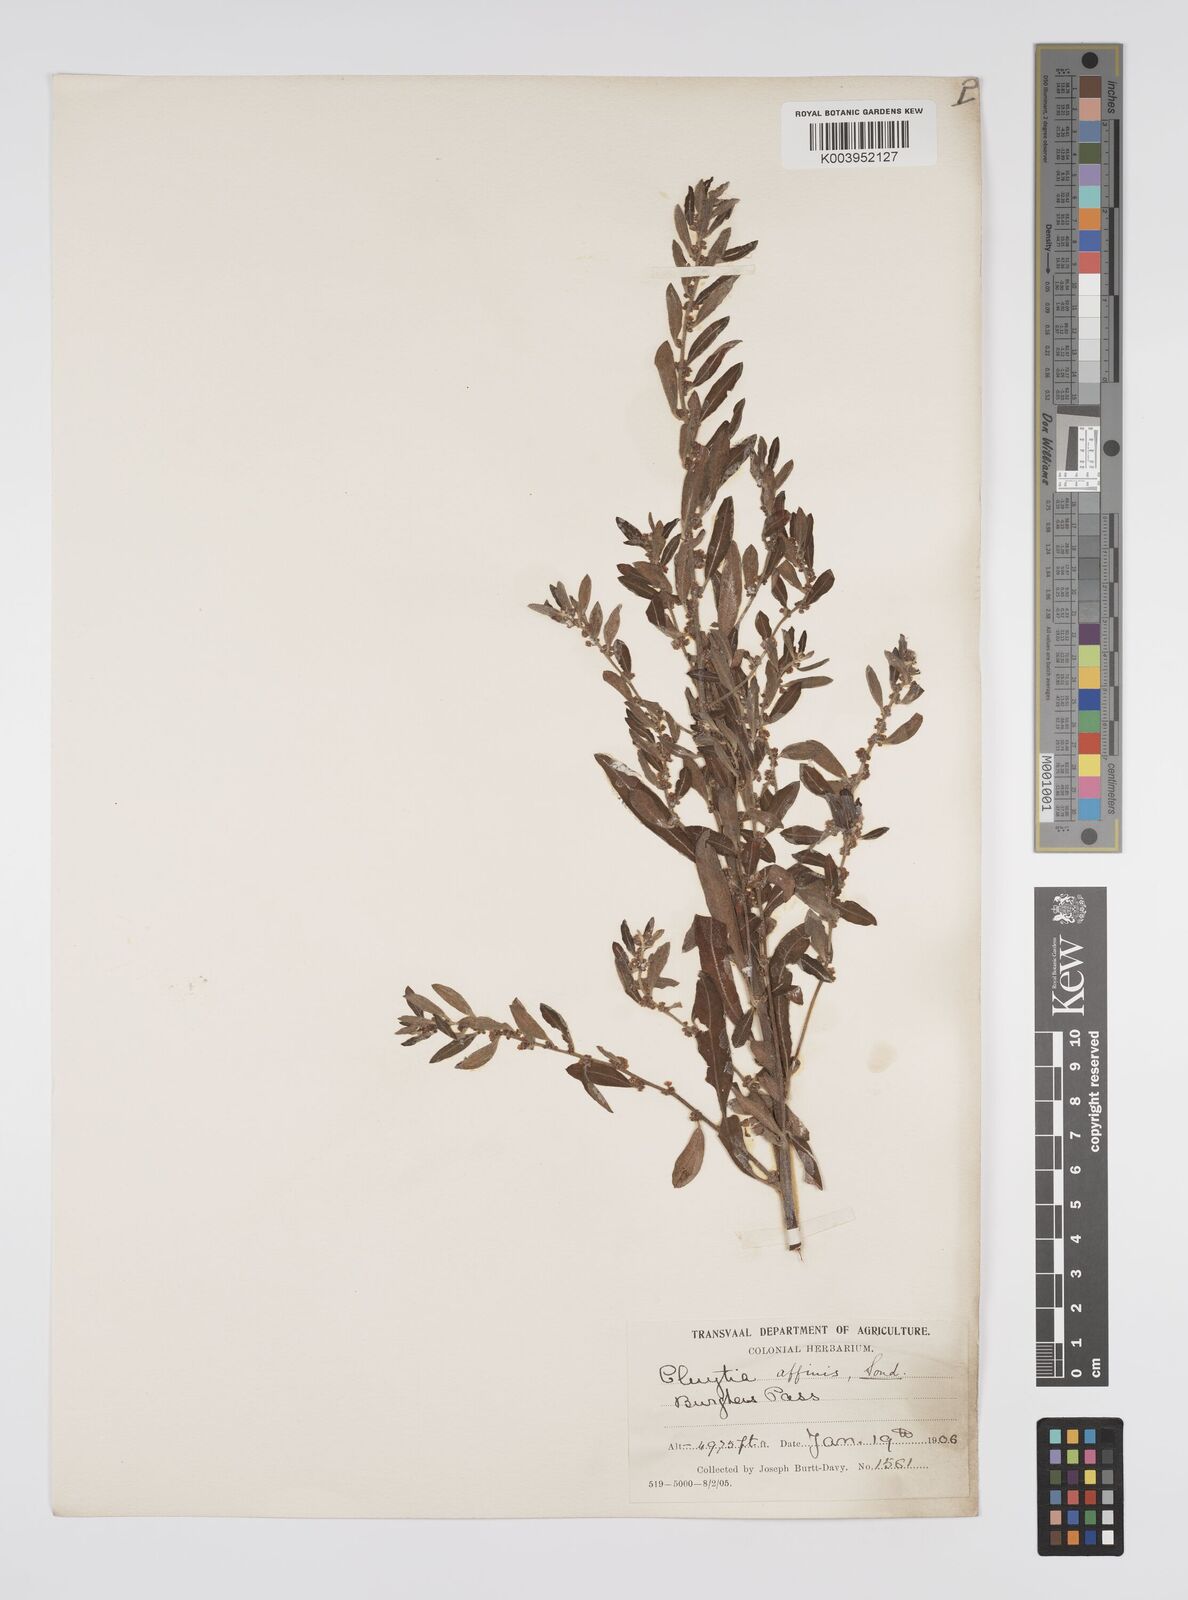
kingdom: Plantae
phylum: Tracheophyta
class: Magnoliopsida
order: Malpighiales
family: Peraceae
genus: Clutia
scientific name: Clutia affinis
